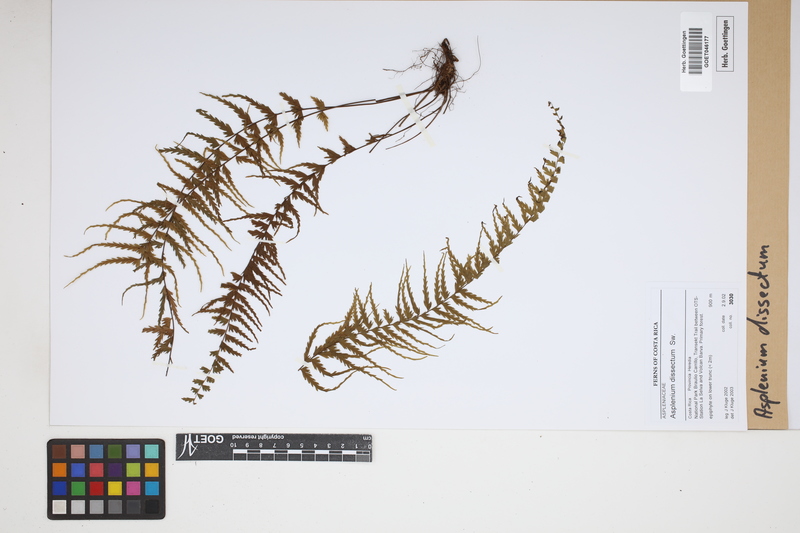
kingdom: Plantae
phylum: Tracheophyta
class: Polypodiopsida
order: Polypodiales
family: Aspleniaceae
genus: Asplenium
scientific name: Asplenium dissectum
